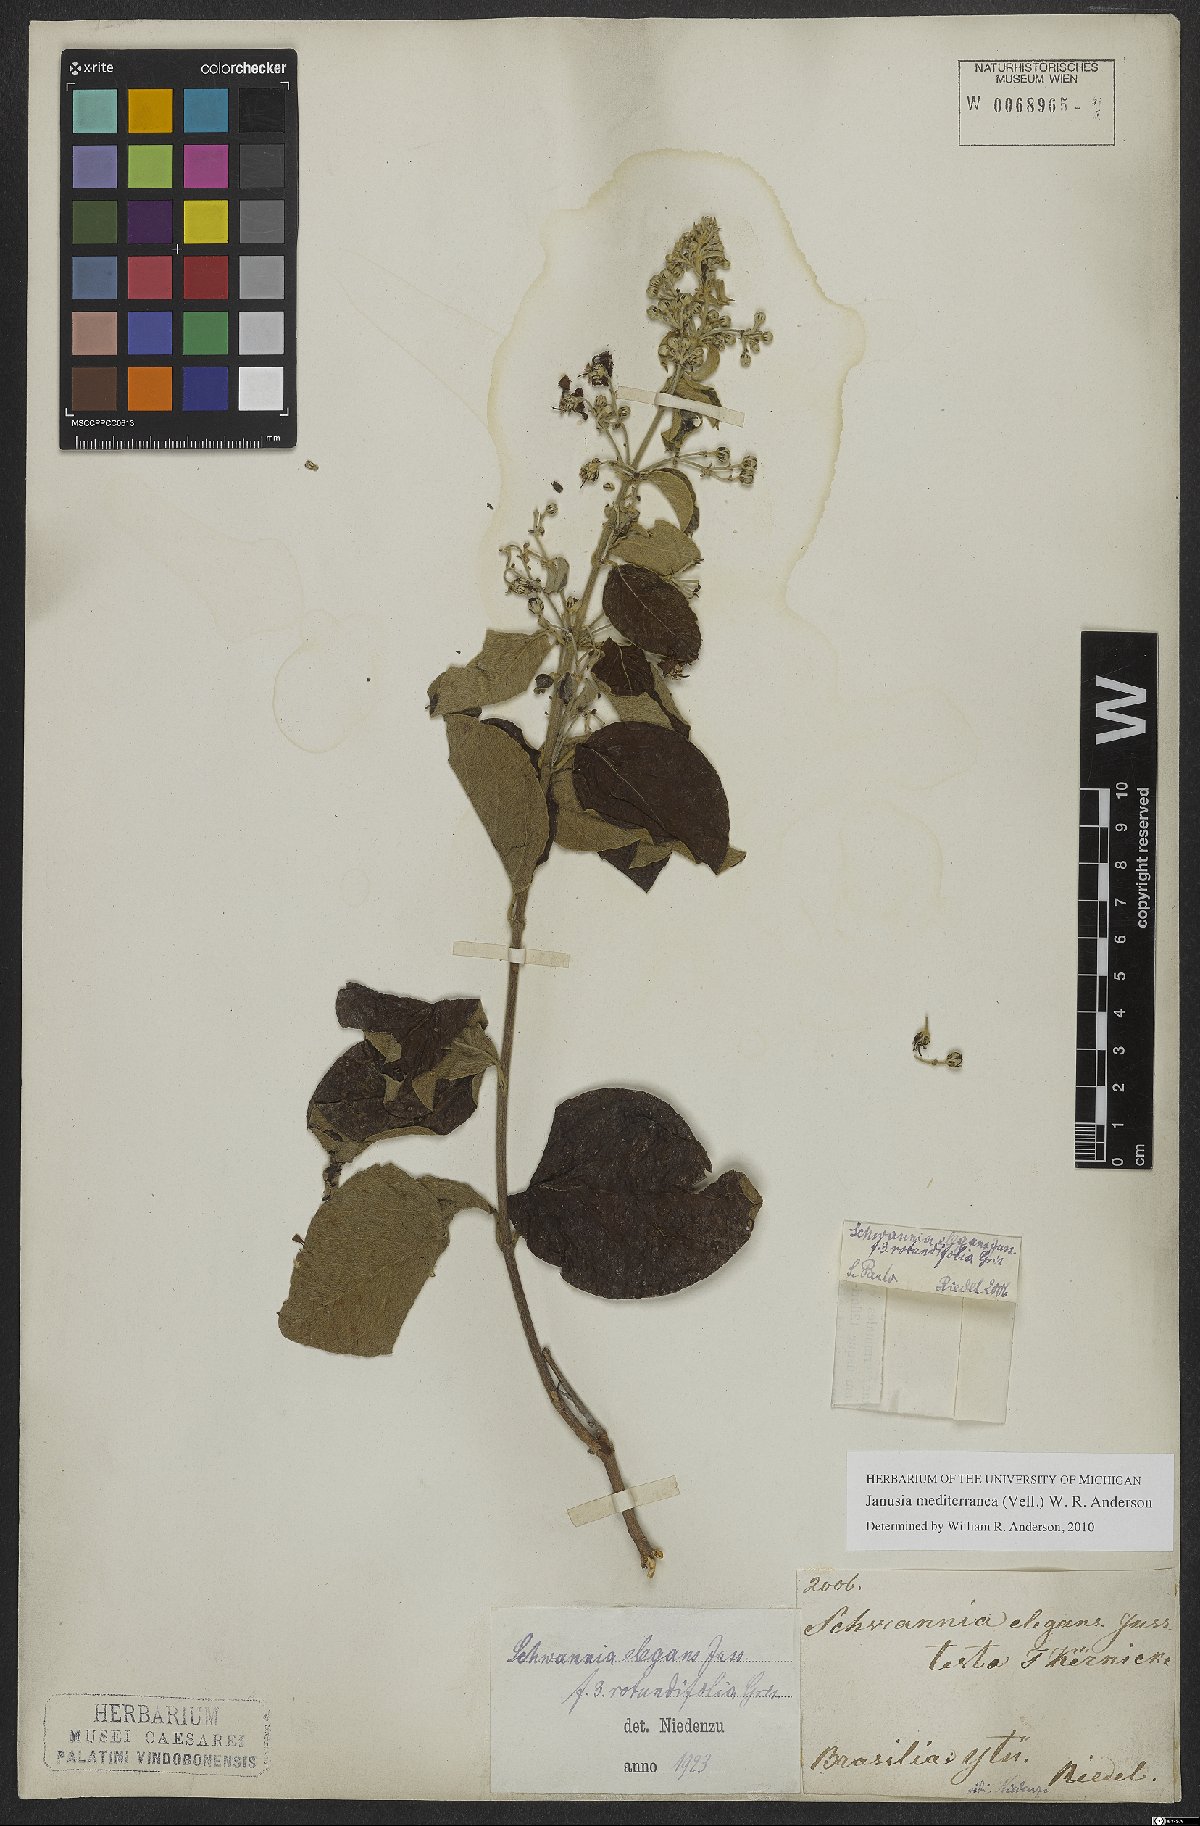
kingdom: Plantae
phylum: Tracheophyta
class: Magnoliopsida
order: Malpighiales
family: Malpighiaceae
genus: Janusia
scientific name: Janusia mediterranea
